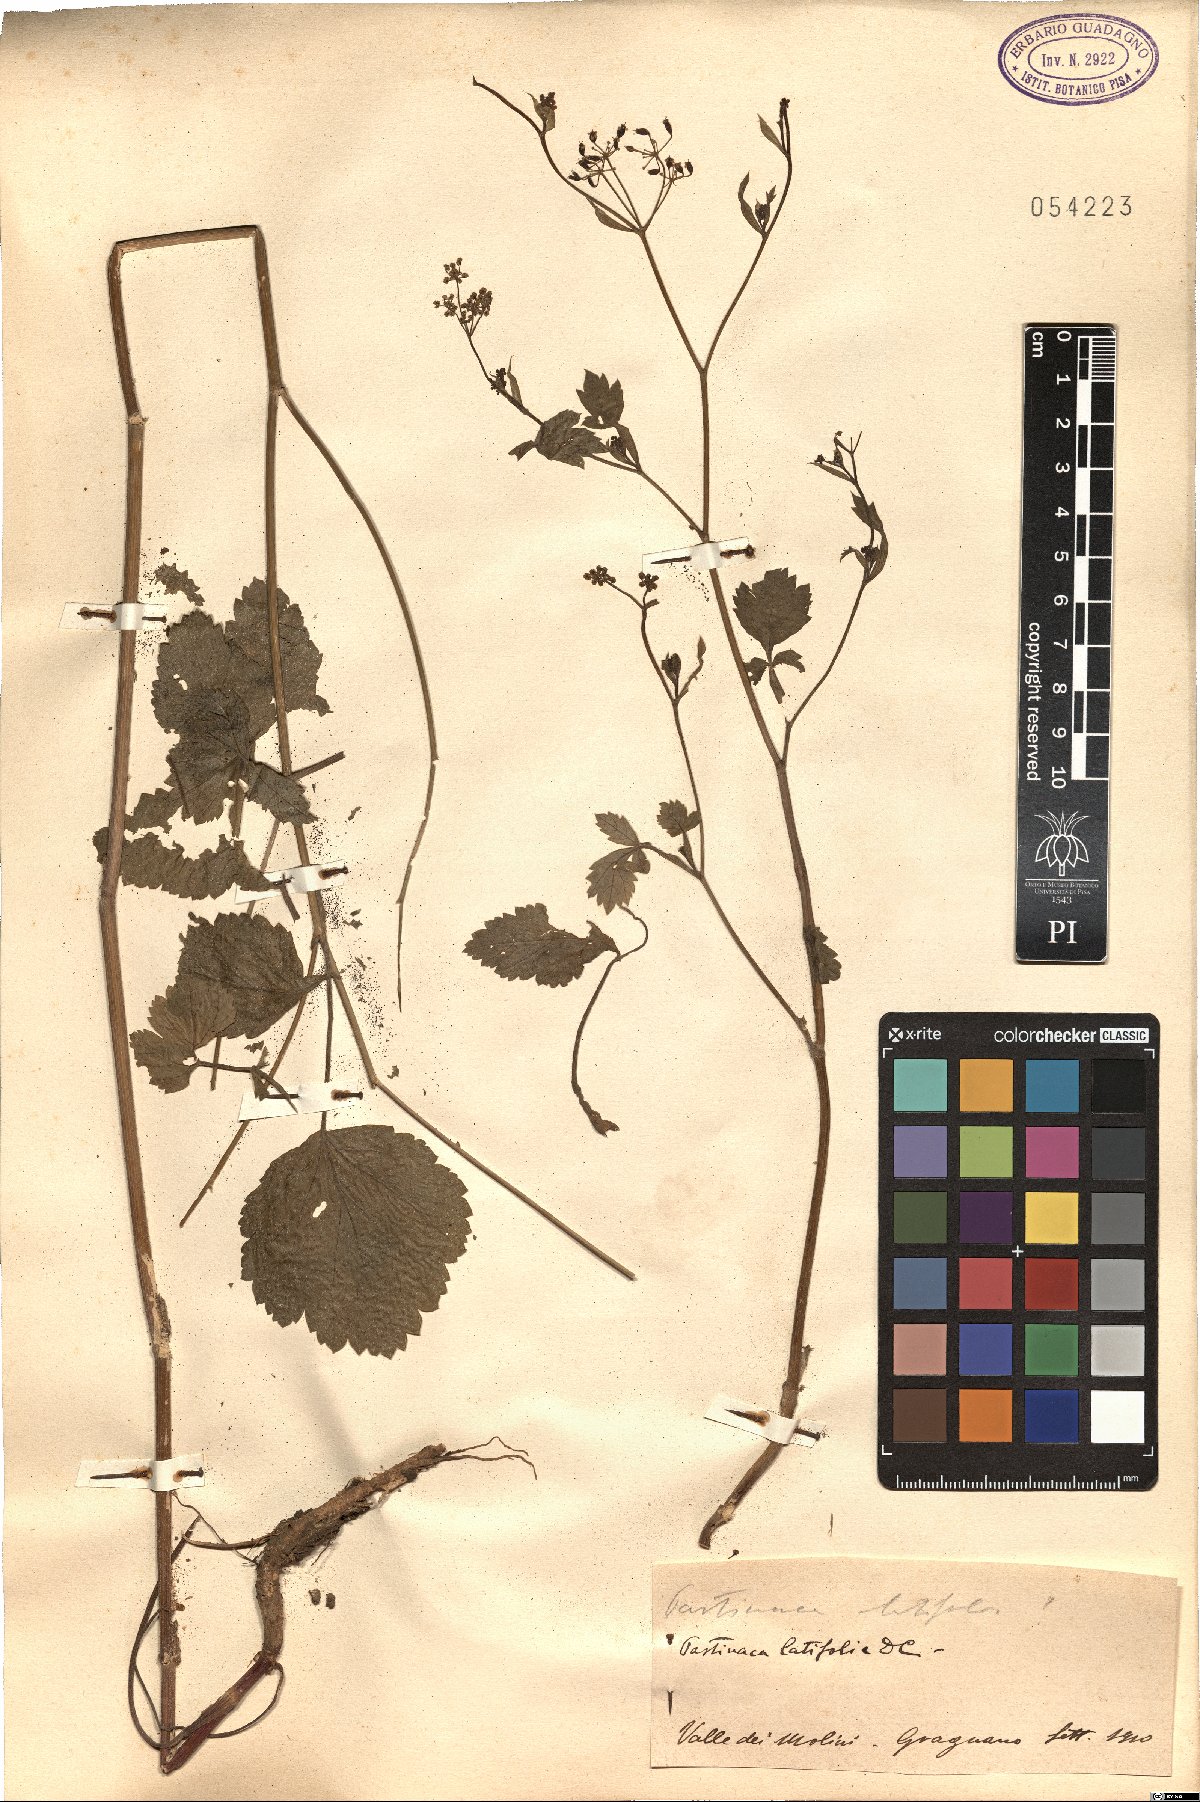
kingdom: Plantae
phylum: Tracheophyta
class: Magnoliopsida
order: Apiales
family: Apiaceae
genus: Pastinaca
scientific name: Pastinaca kochii
